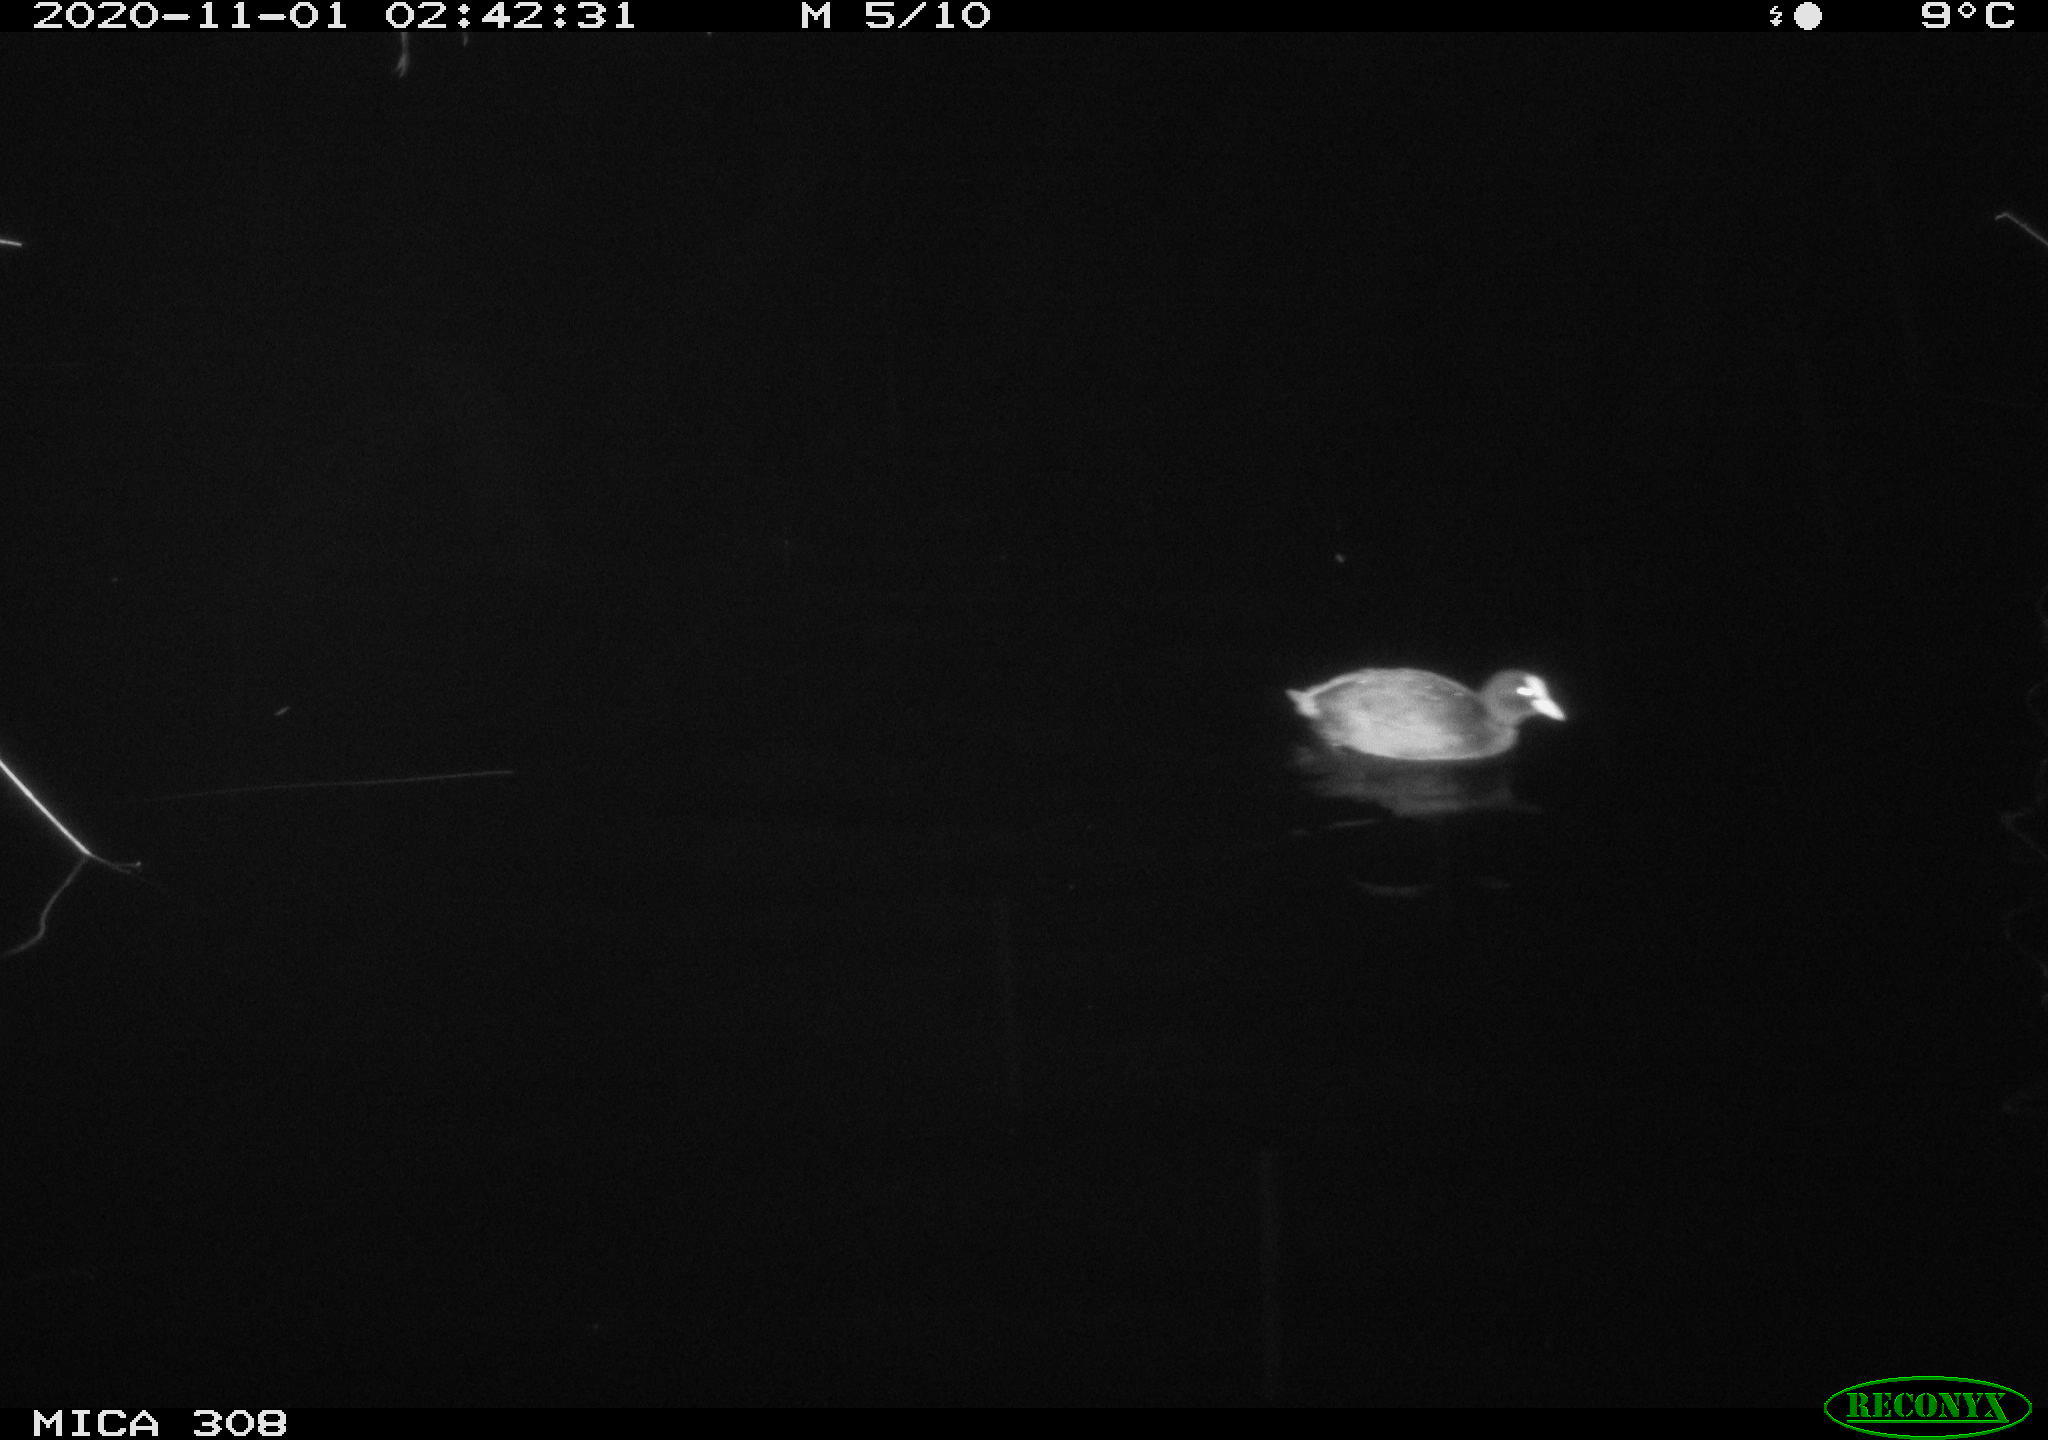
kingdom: Animalia
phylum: Chordata
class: Aves
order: Gruiformes
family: Rallidae
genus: Fulica
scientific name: Fulica atra
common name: Eurasian coot
